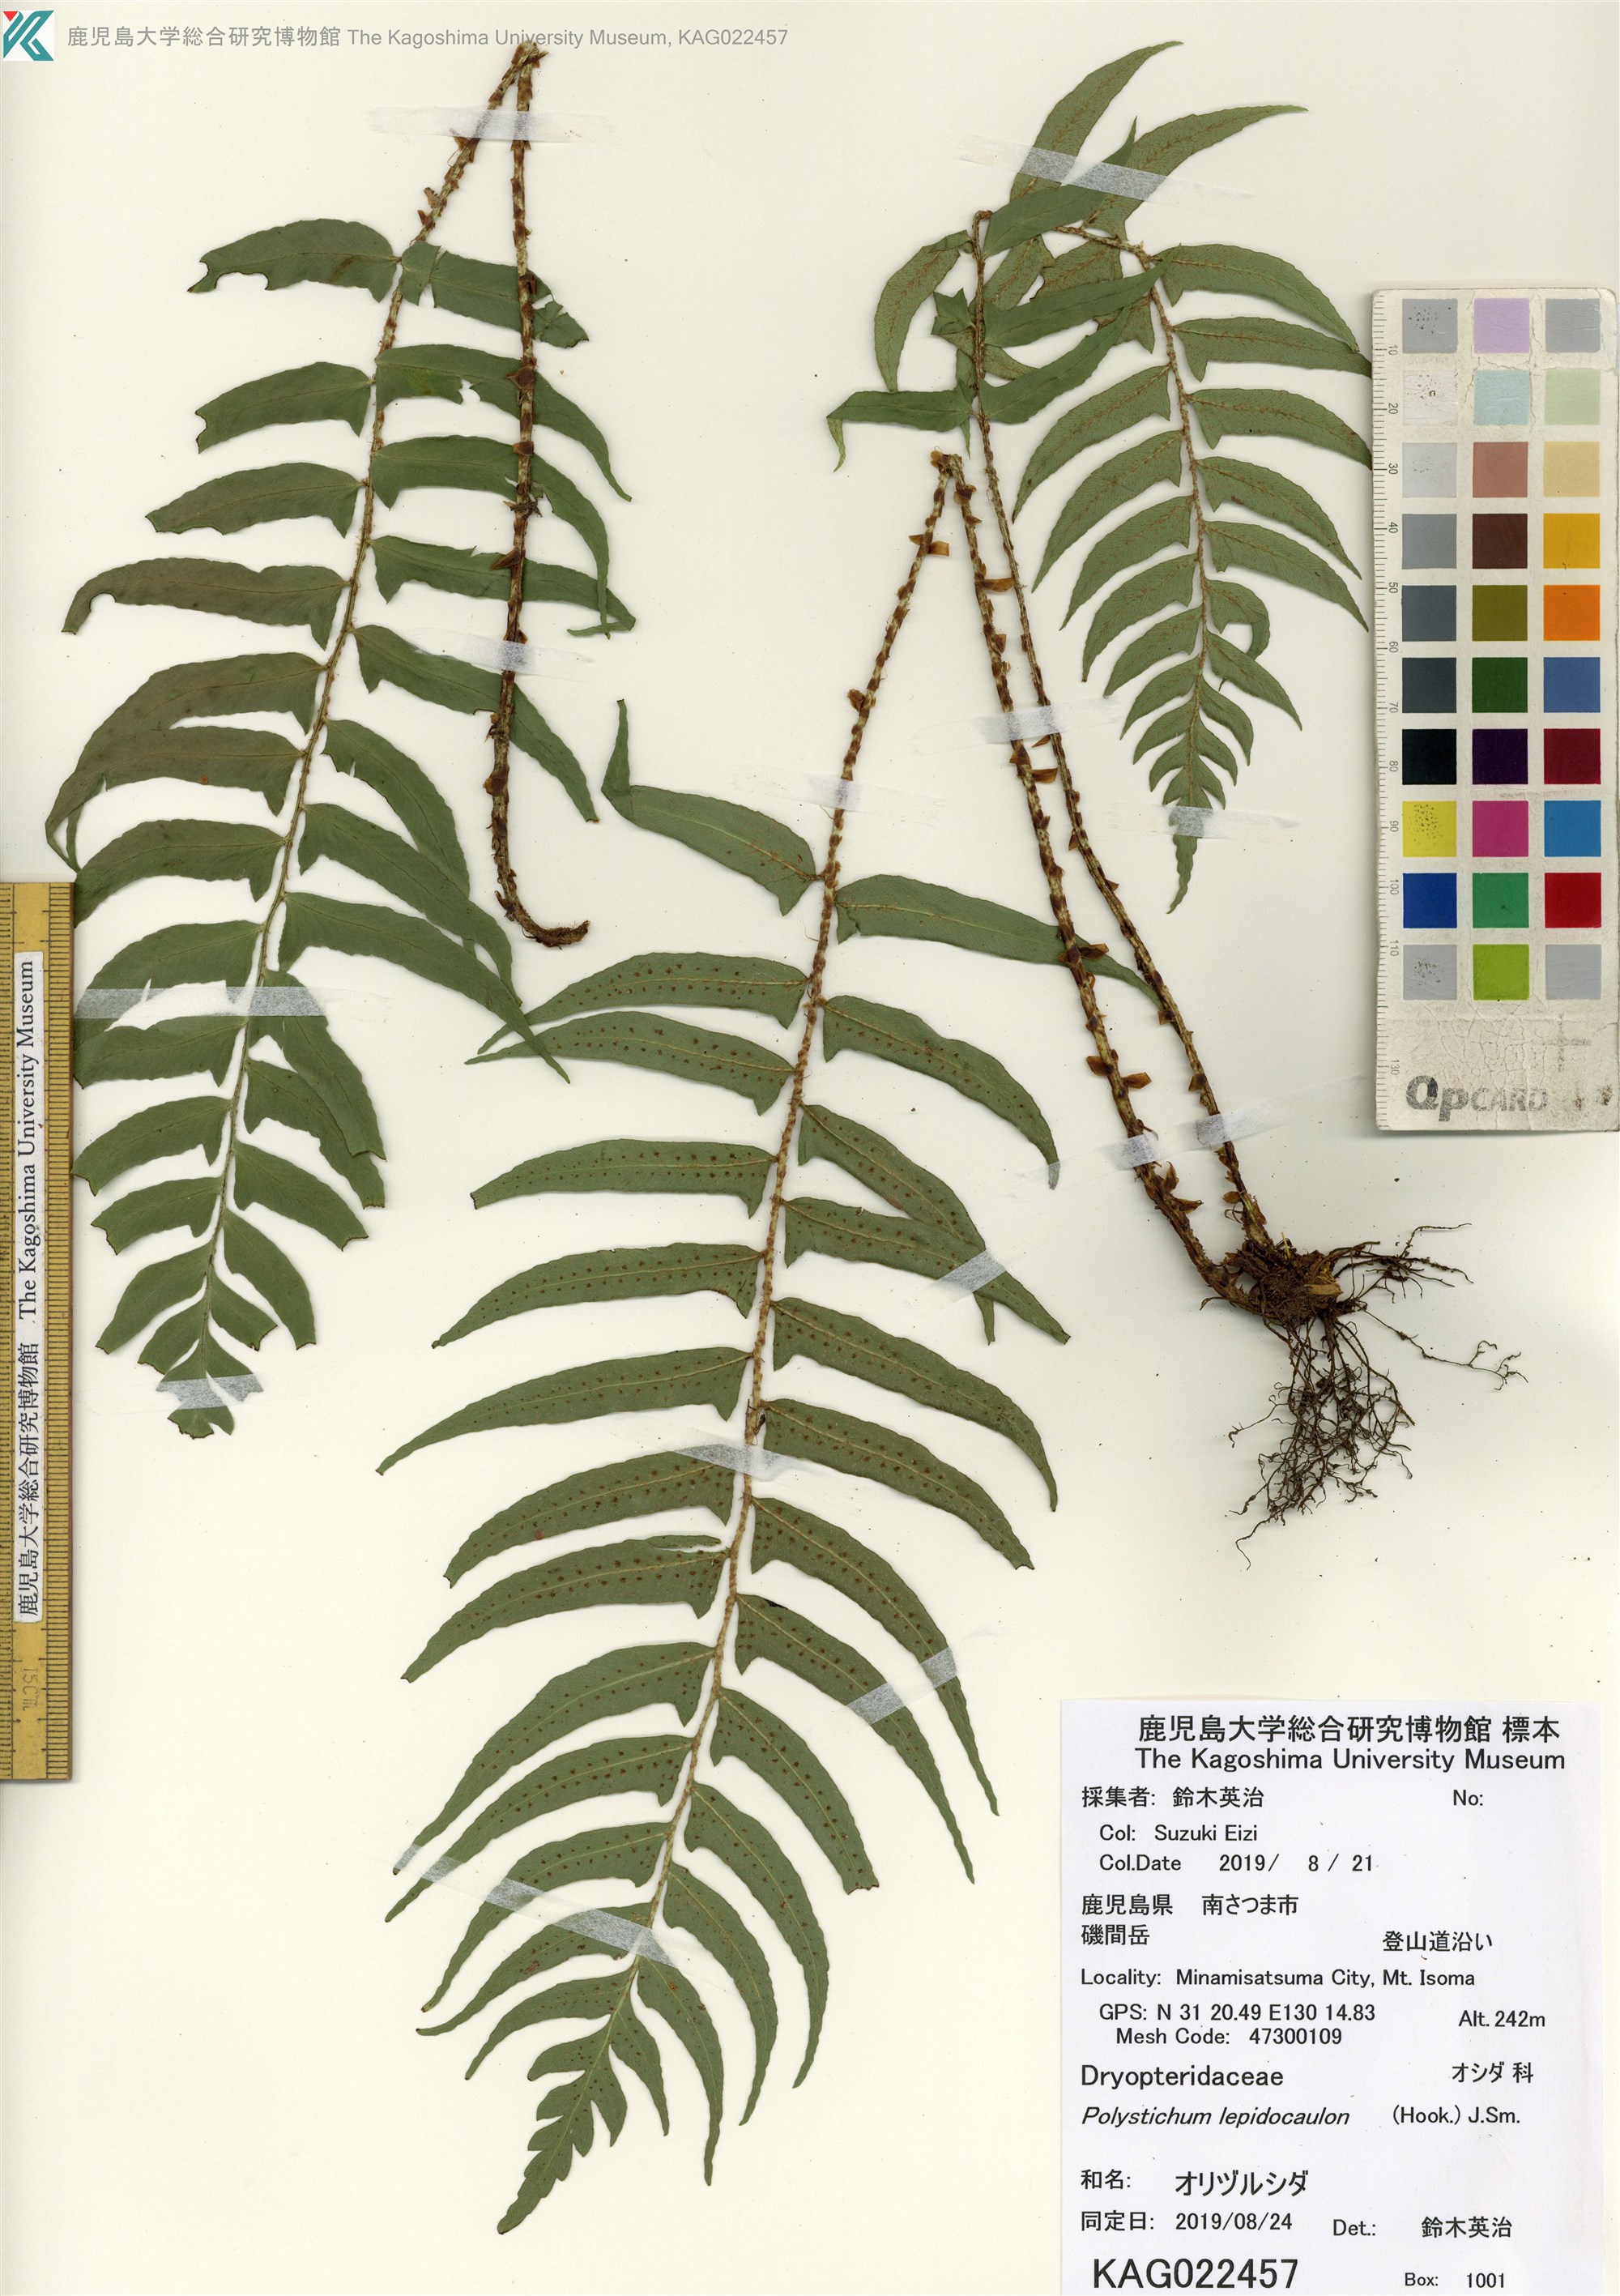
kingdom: Plantae
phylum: Tracheophyta
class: Polypodiopsida
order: Polypodiales
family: Dryopteridaceae
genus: Polystichum
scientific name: Polystichum lepidocaulon
